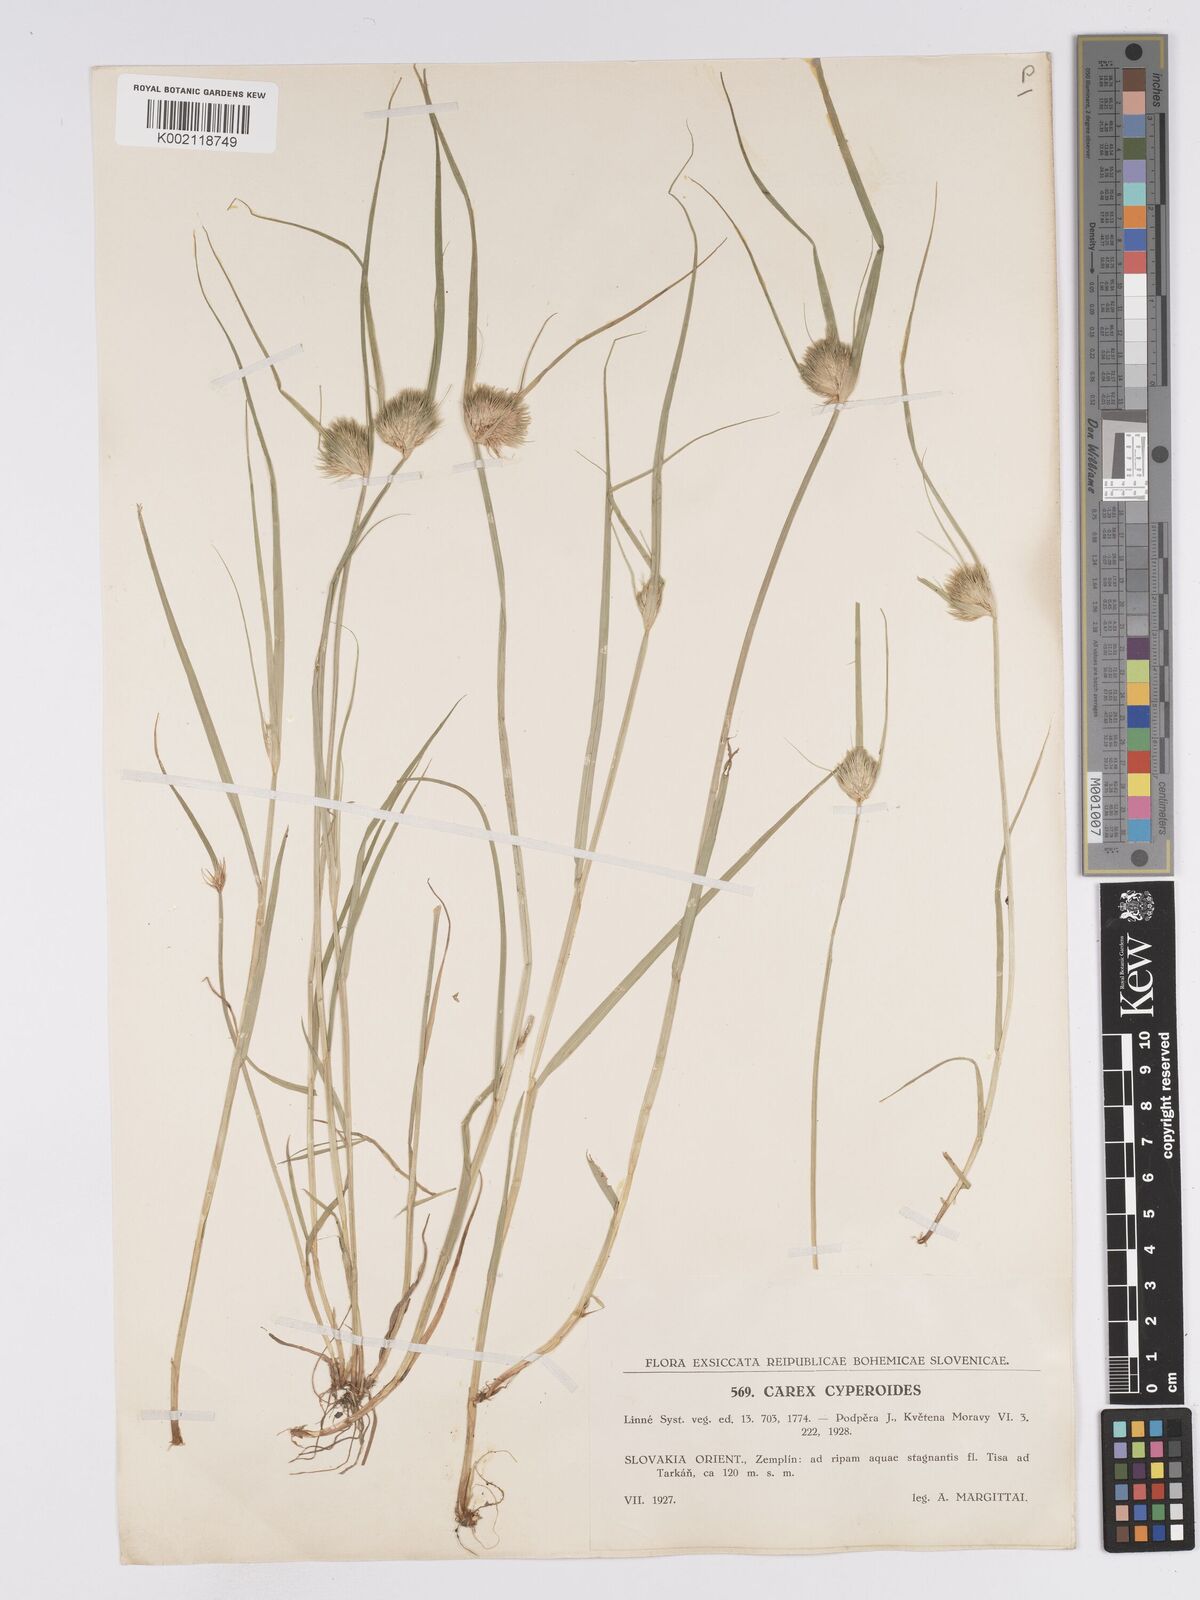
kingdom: Plantae
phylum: Tracheophyta
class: Liliopsida
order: Poales
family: Cyperaceae
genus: Carex
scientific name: Carex bohemica
